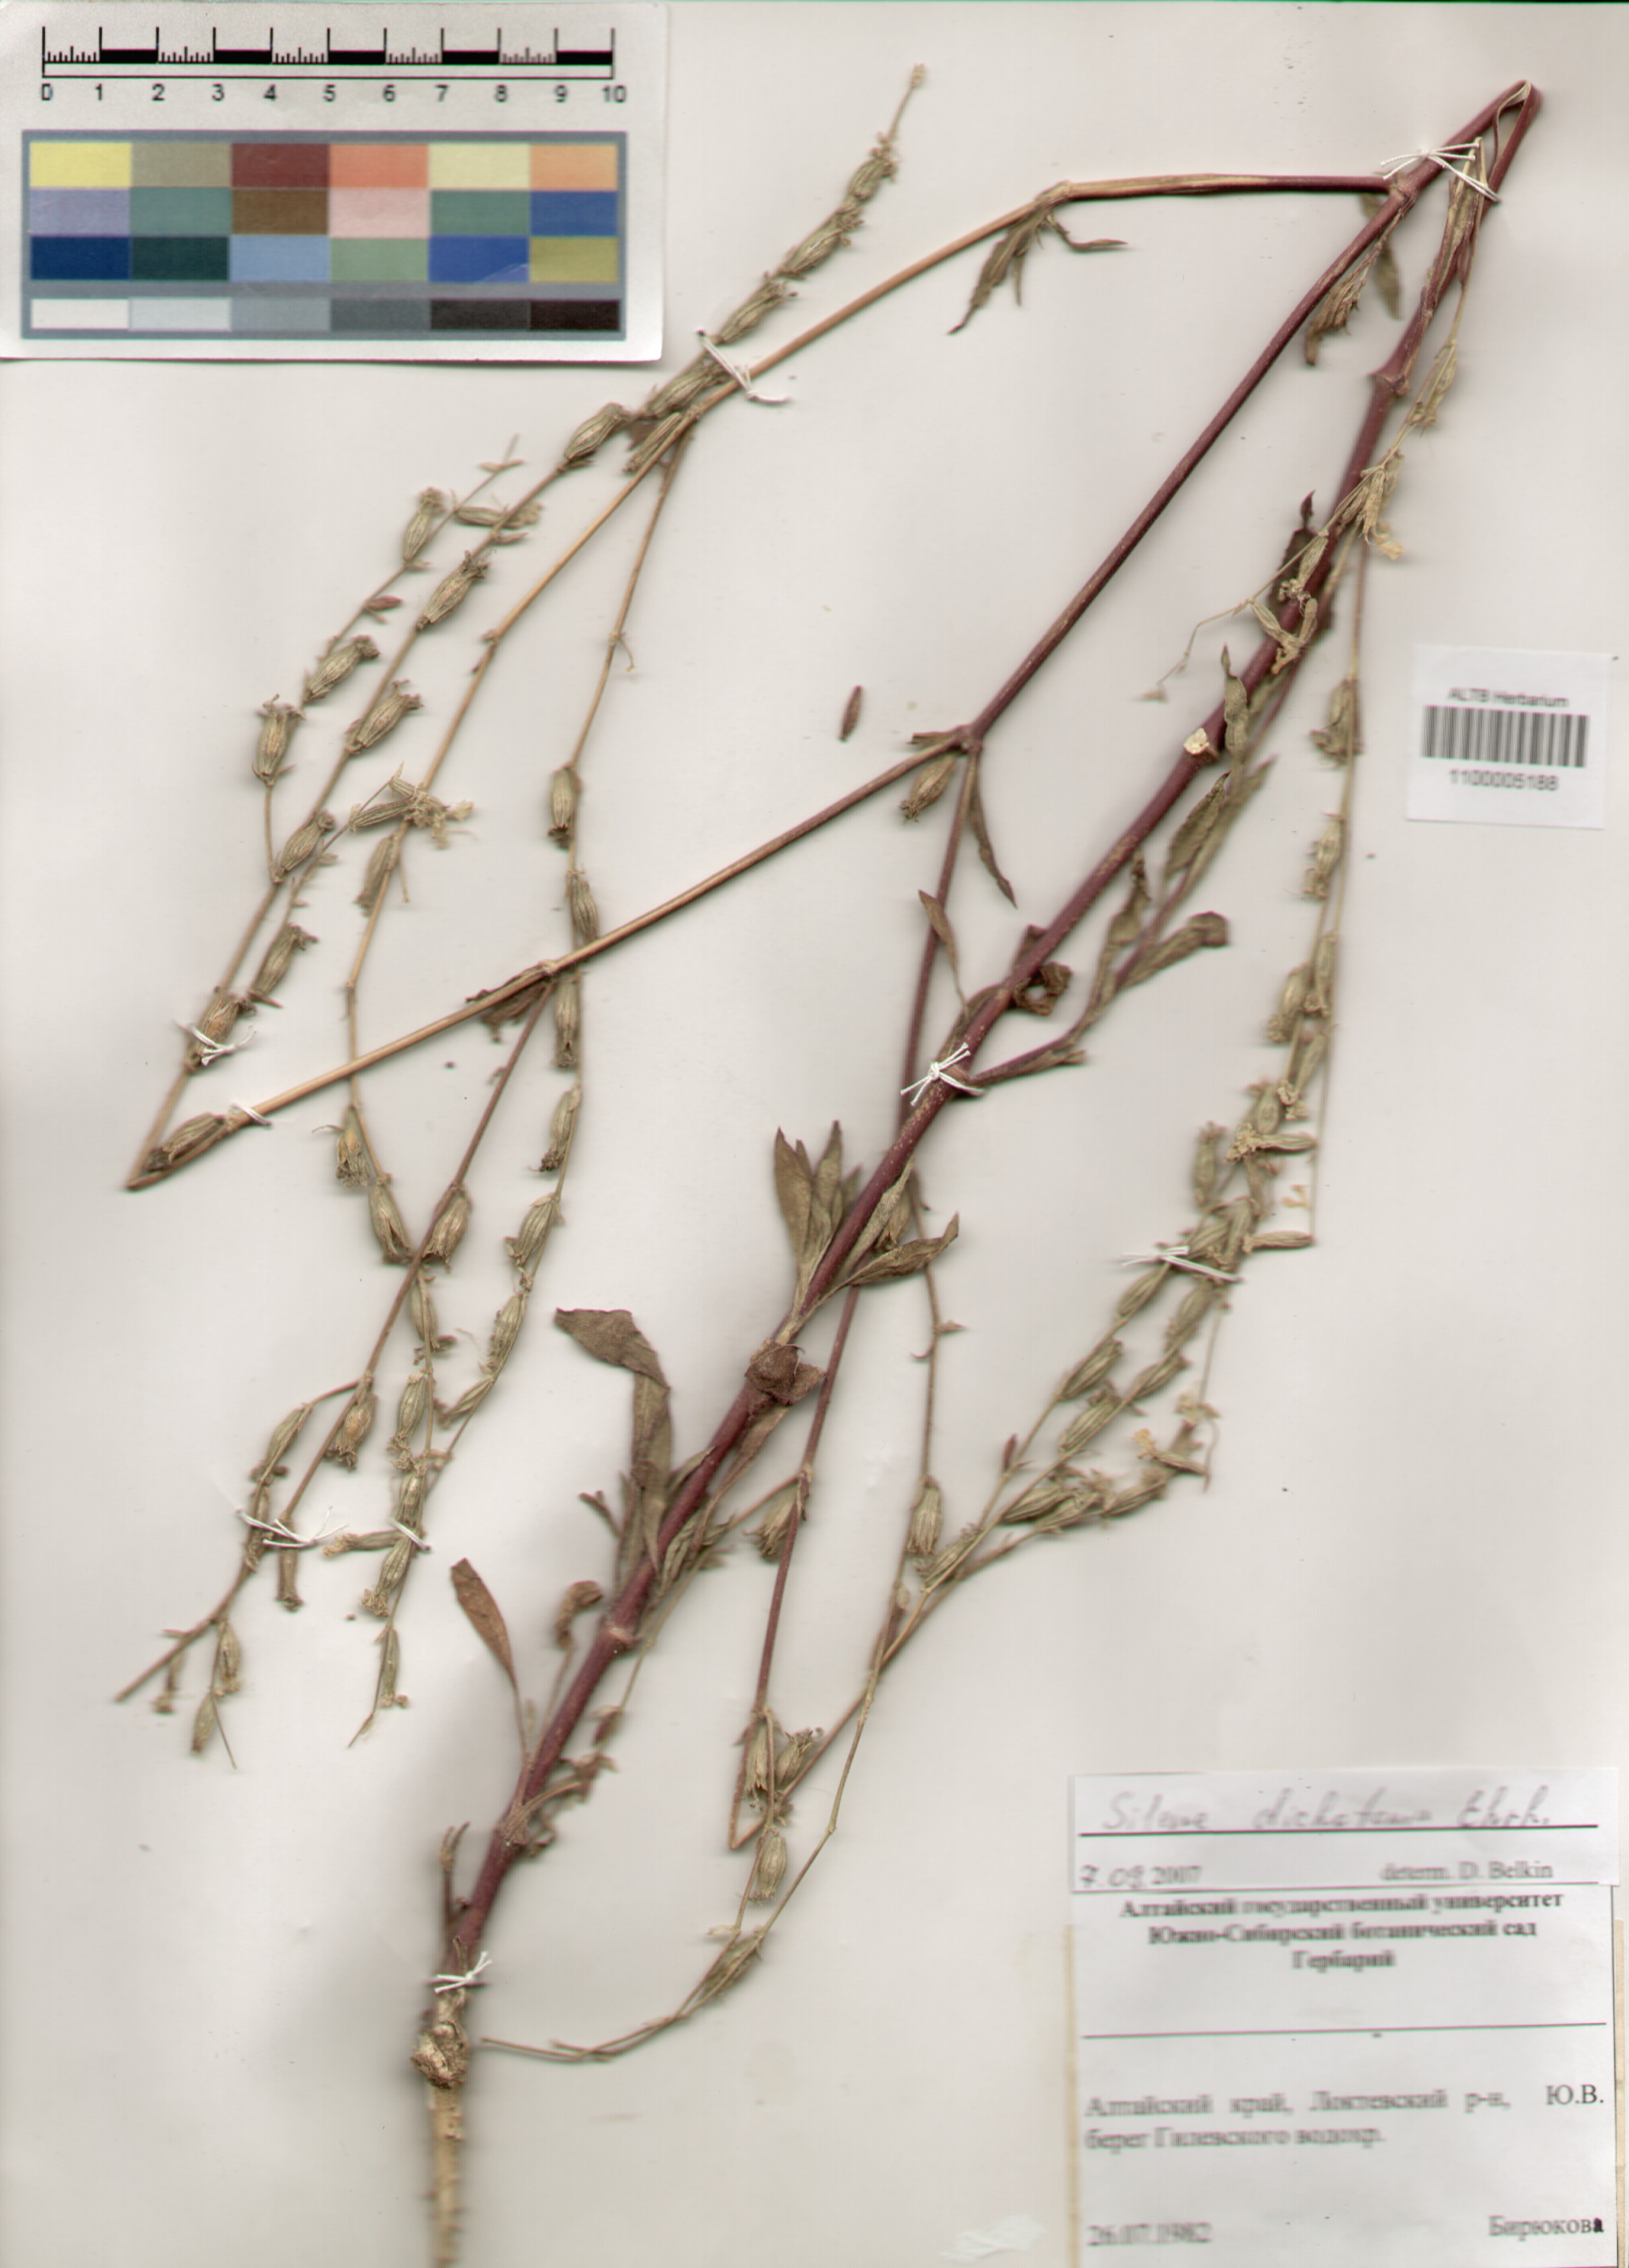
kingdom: Plantae
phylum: Tracheophyta
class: Magnoliopsida
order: Caryophyllales
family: Caryophyllaceae
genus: Silene
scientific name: Silene dichotoma
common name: Forked catchfly
